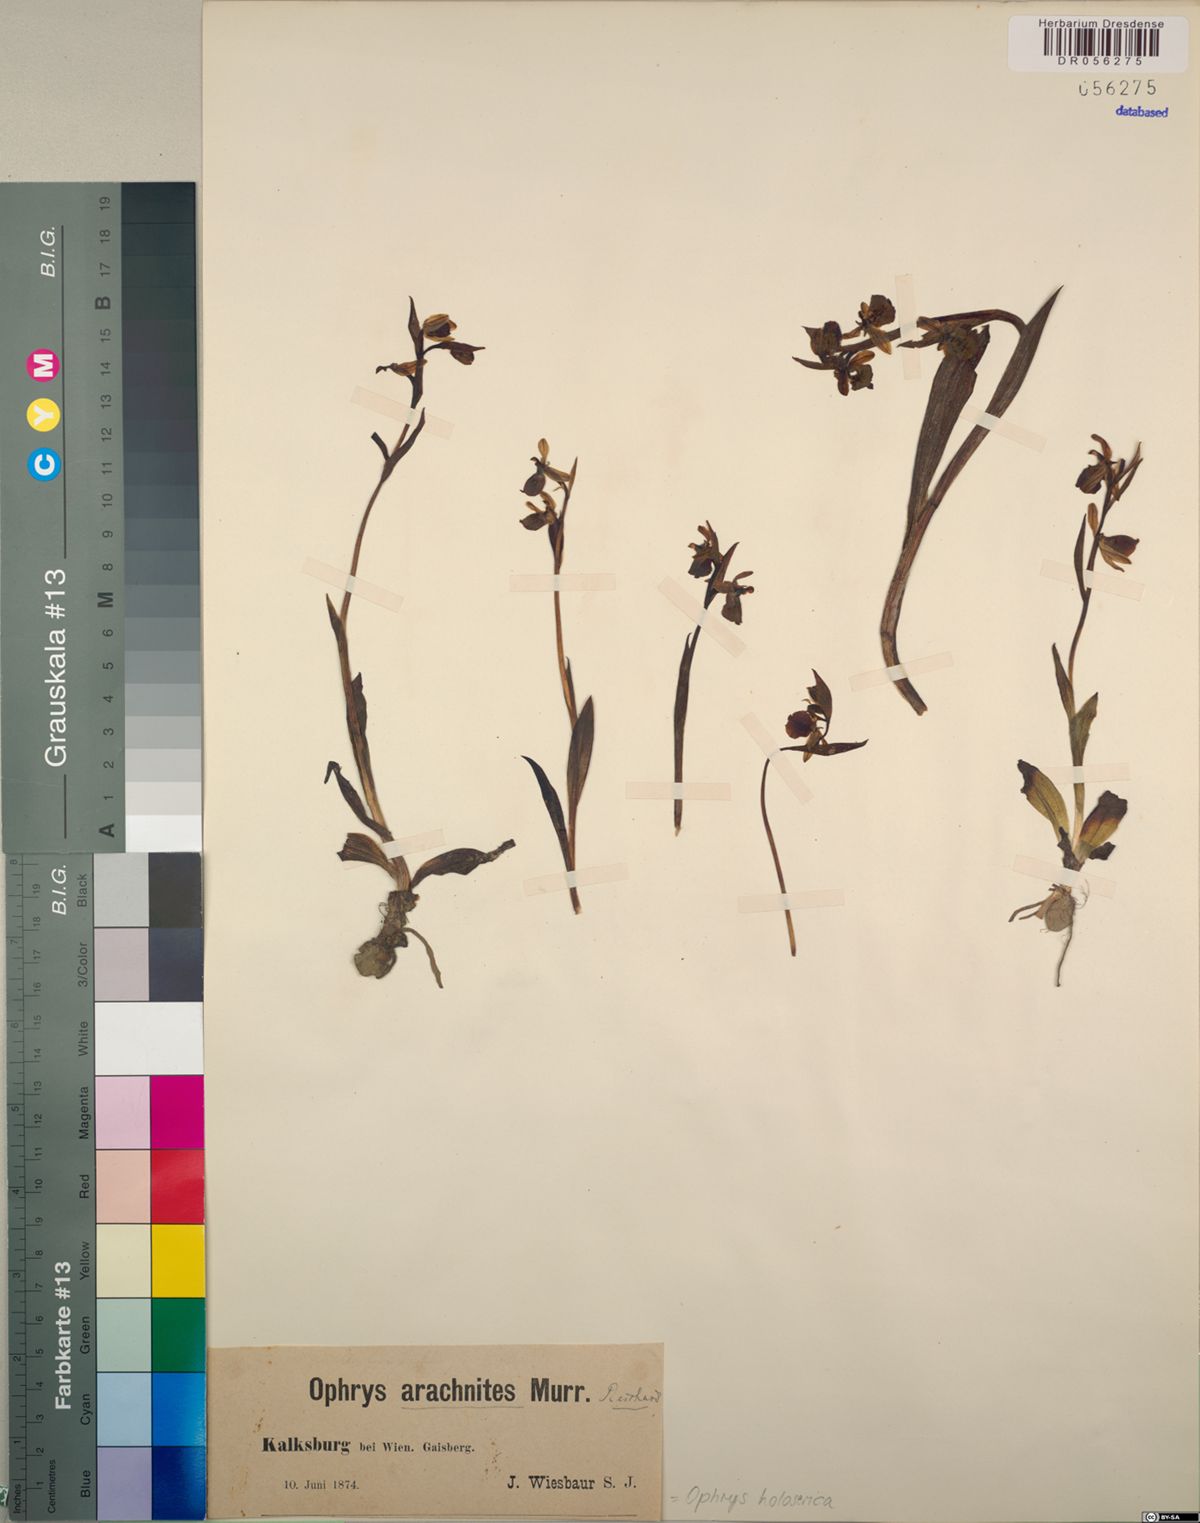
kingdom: Plantae
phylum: Tracheophyta
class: Liliopsida
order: Asparagales
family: Orchidaceae
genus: Ophrys
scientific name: Ophrys holosericea
